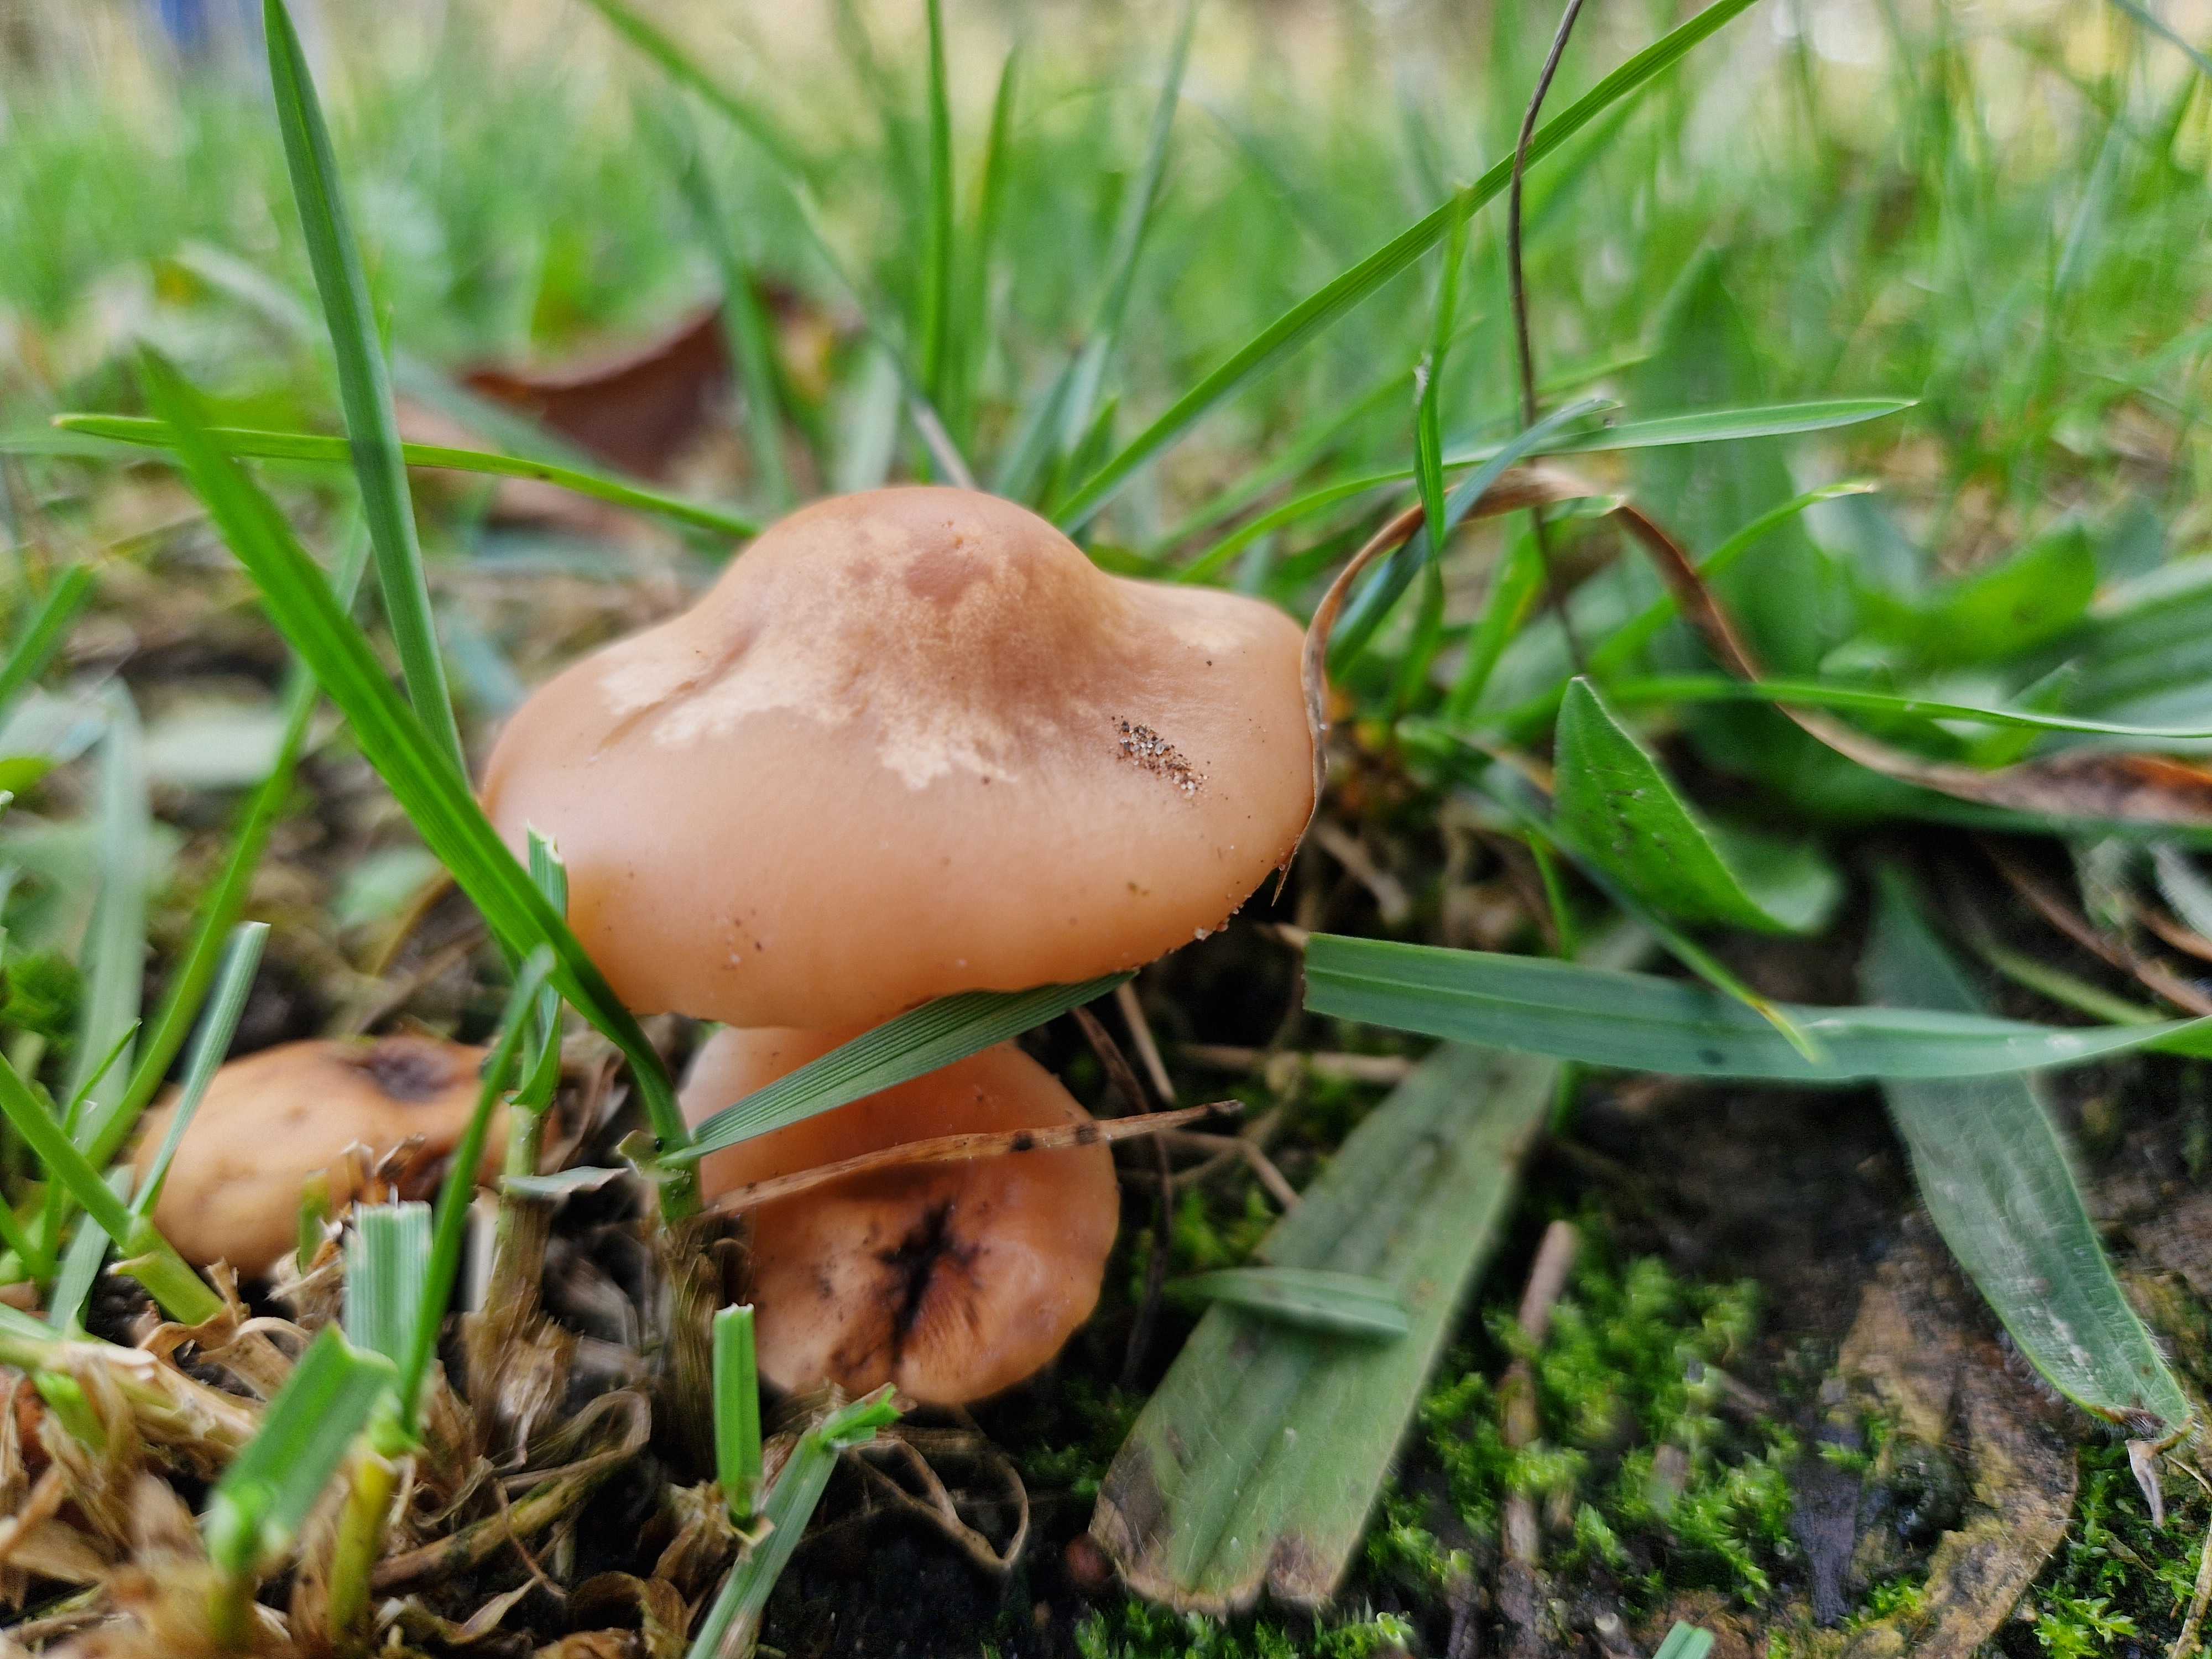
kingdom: Fungi
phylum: Basidiomycota
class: Agaricomycetes
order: Agaricales
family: Tricholomataceae
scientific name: Tricholomataceae
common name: ridderhatfamilien
